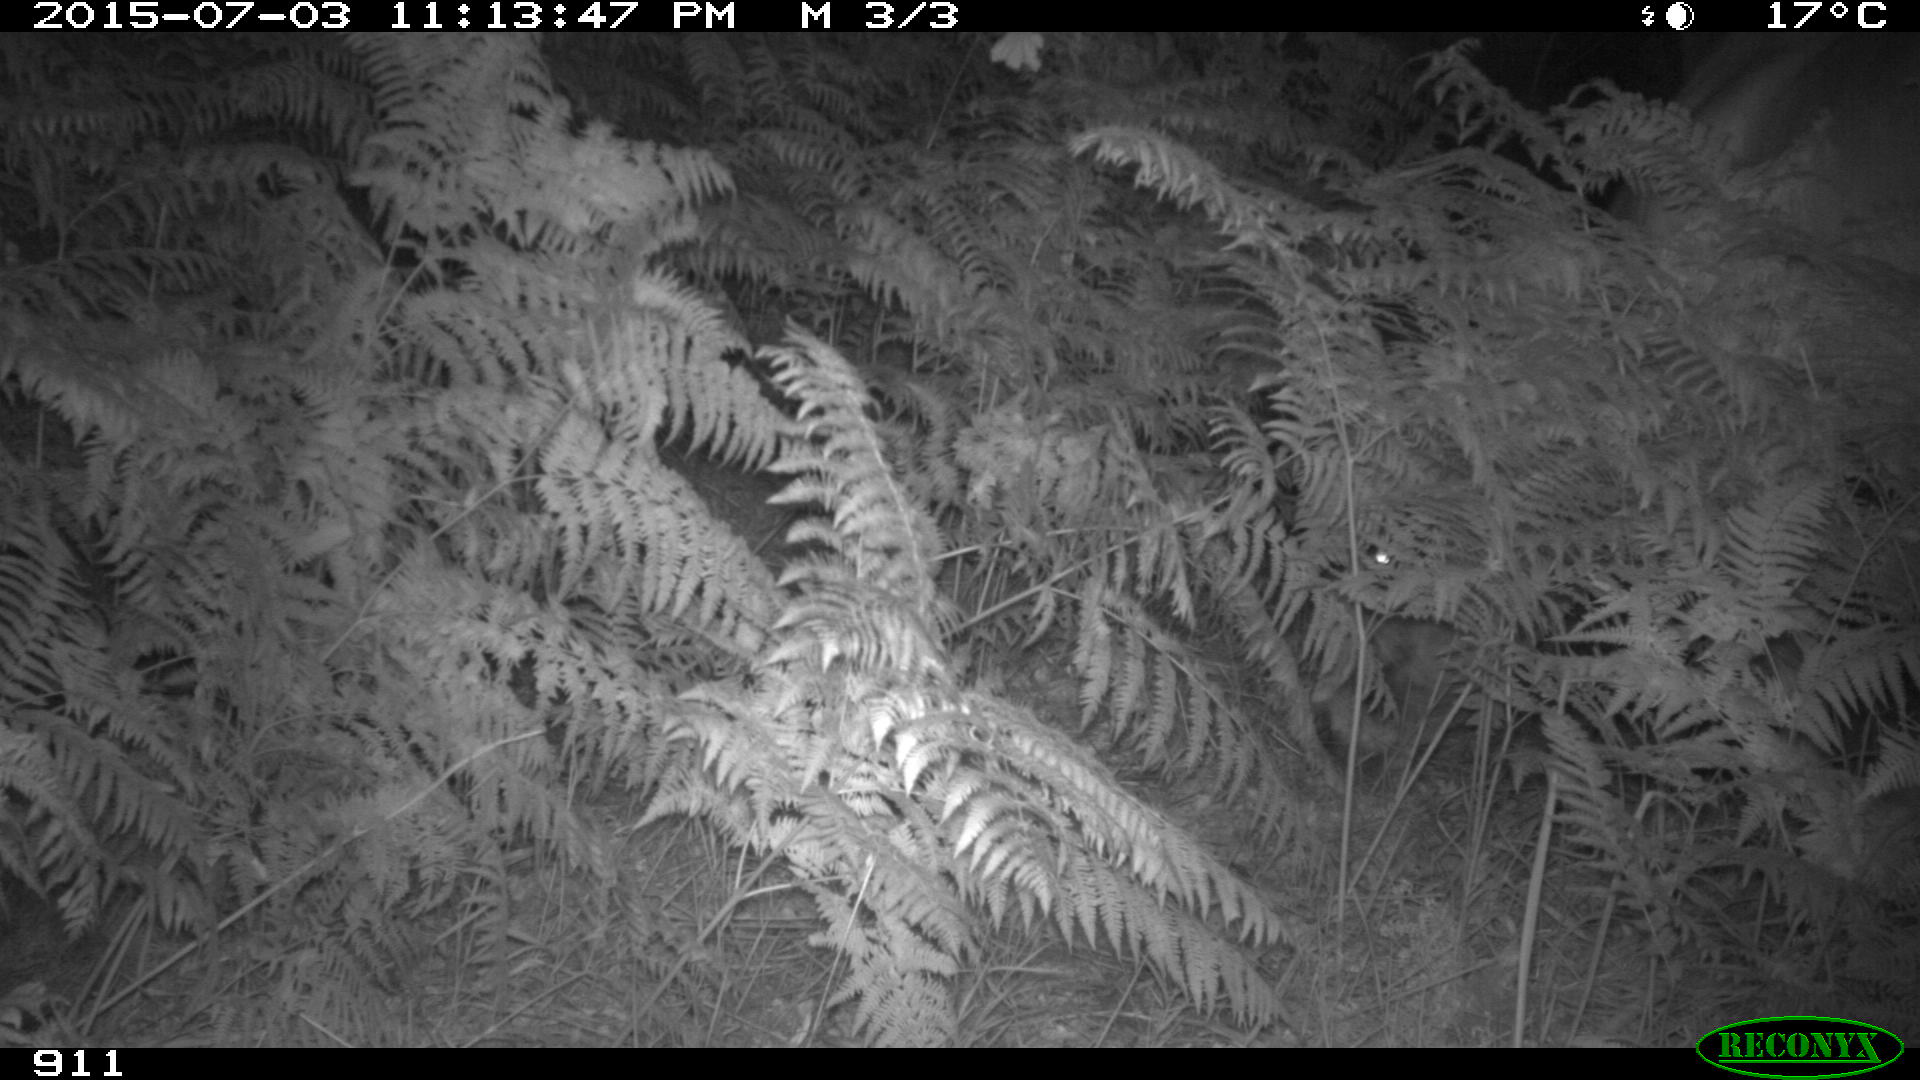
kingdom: Animalia
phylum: Chordata
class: Mammalia
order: Artiodactyla
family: Bovidae
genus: Bos
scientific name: Bos taurus
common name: Domesticated cattle
